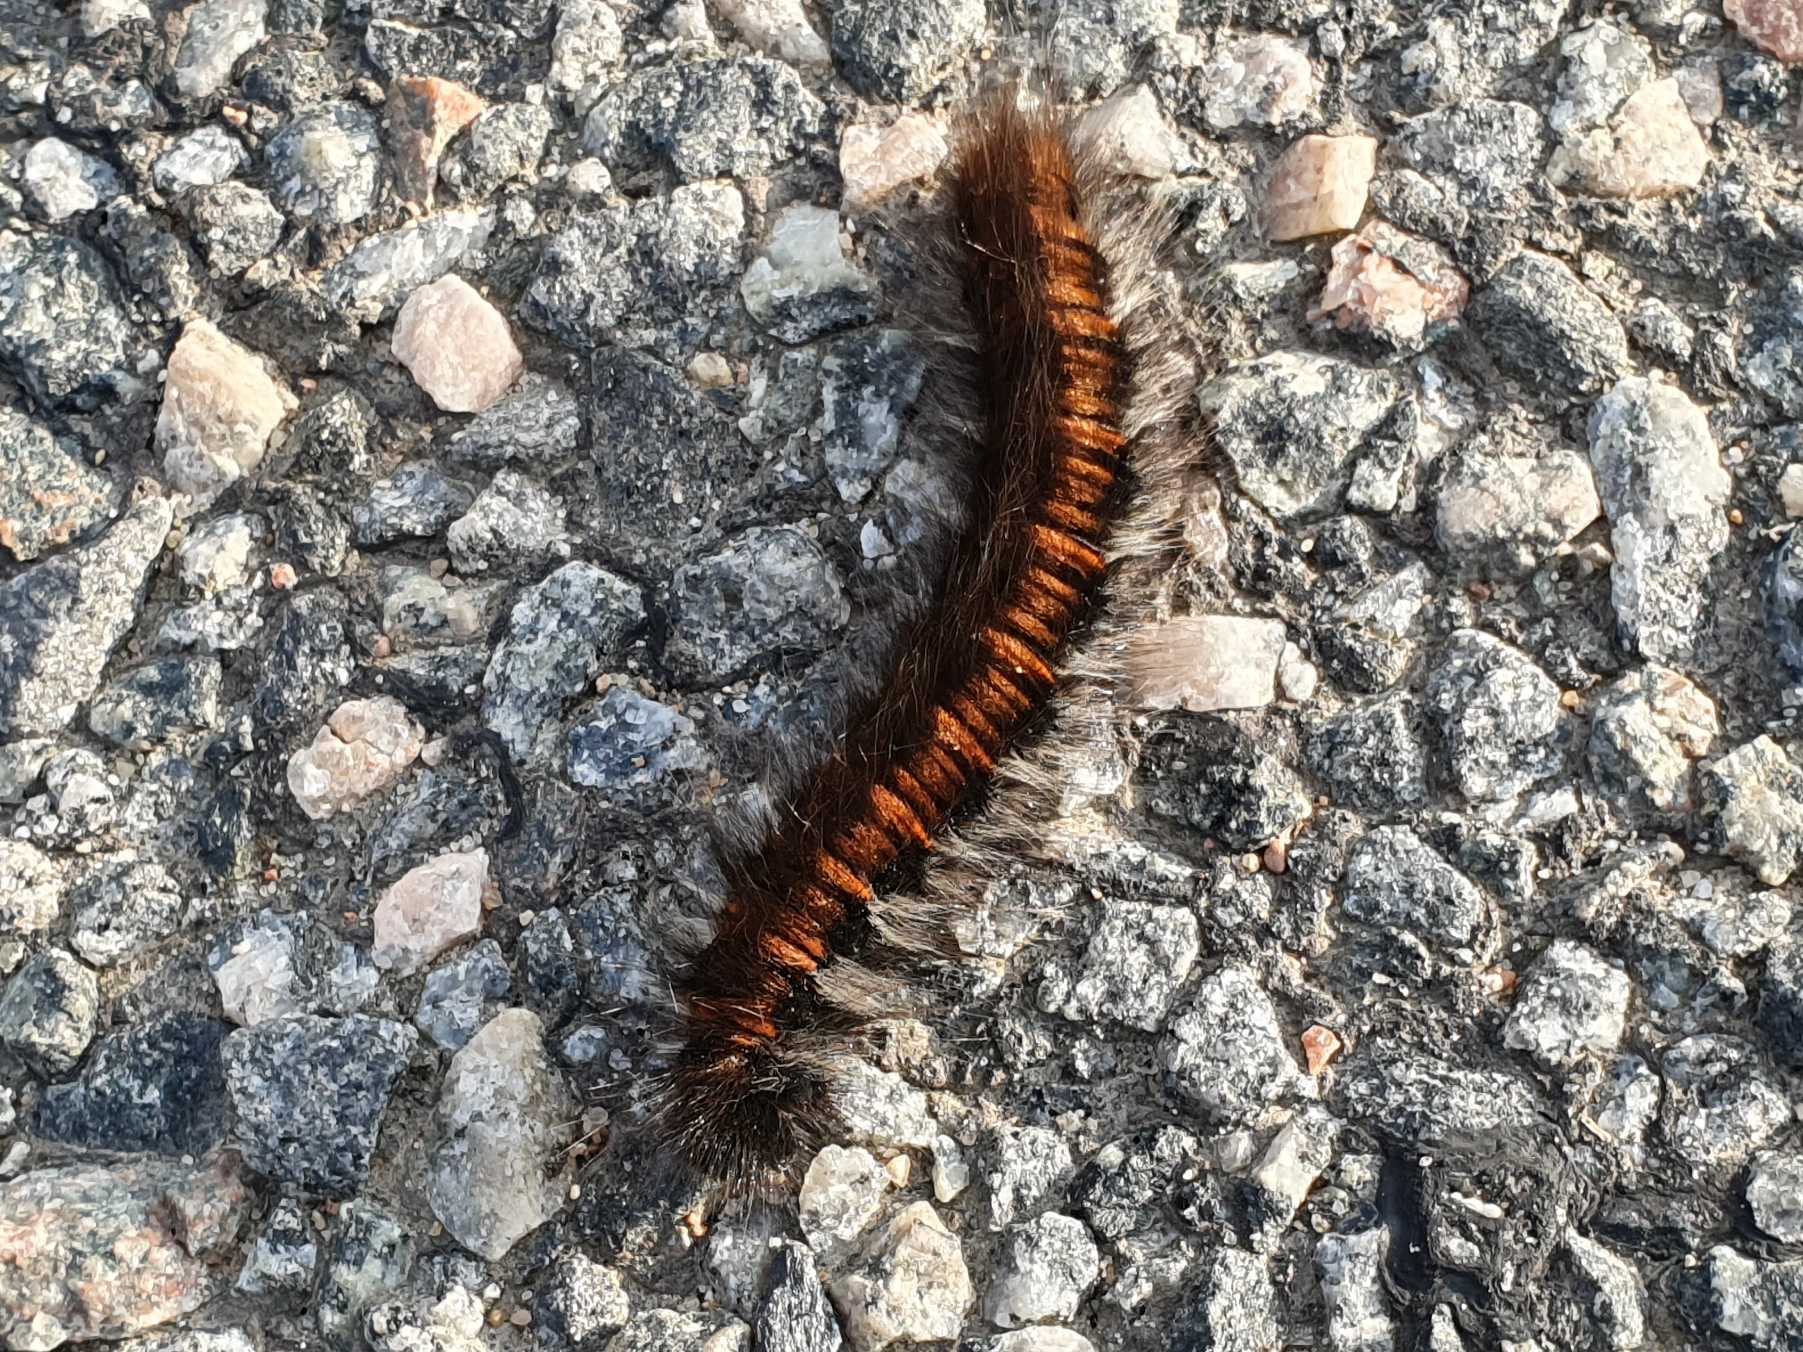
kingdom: Animalia
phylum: Arthropoda
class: Insecta
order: Lepidoptera
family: Lasiocampidae
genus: Macrothylacia
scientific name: Macrothylacia rubi
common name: Brombærspinder
